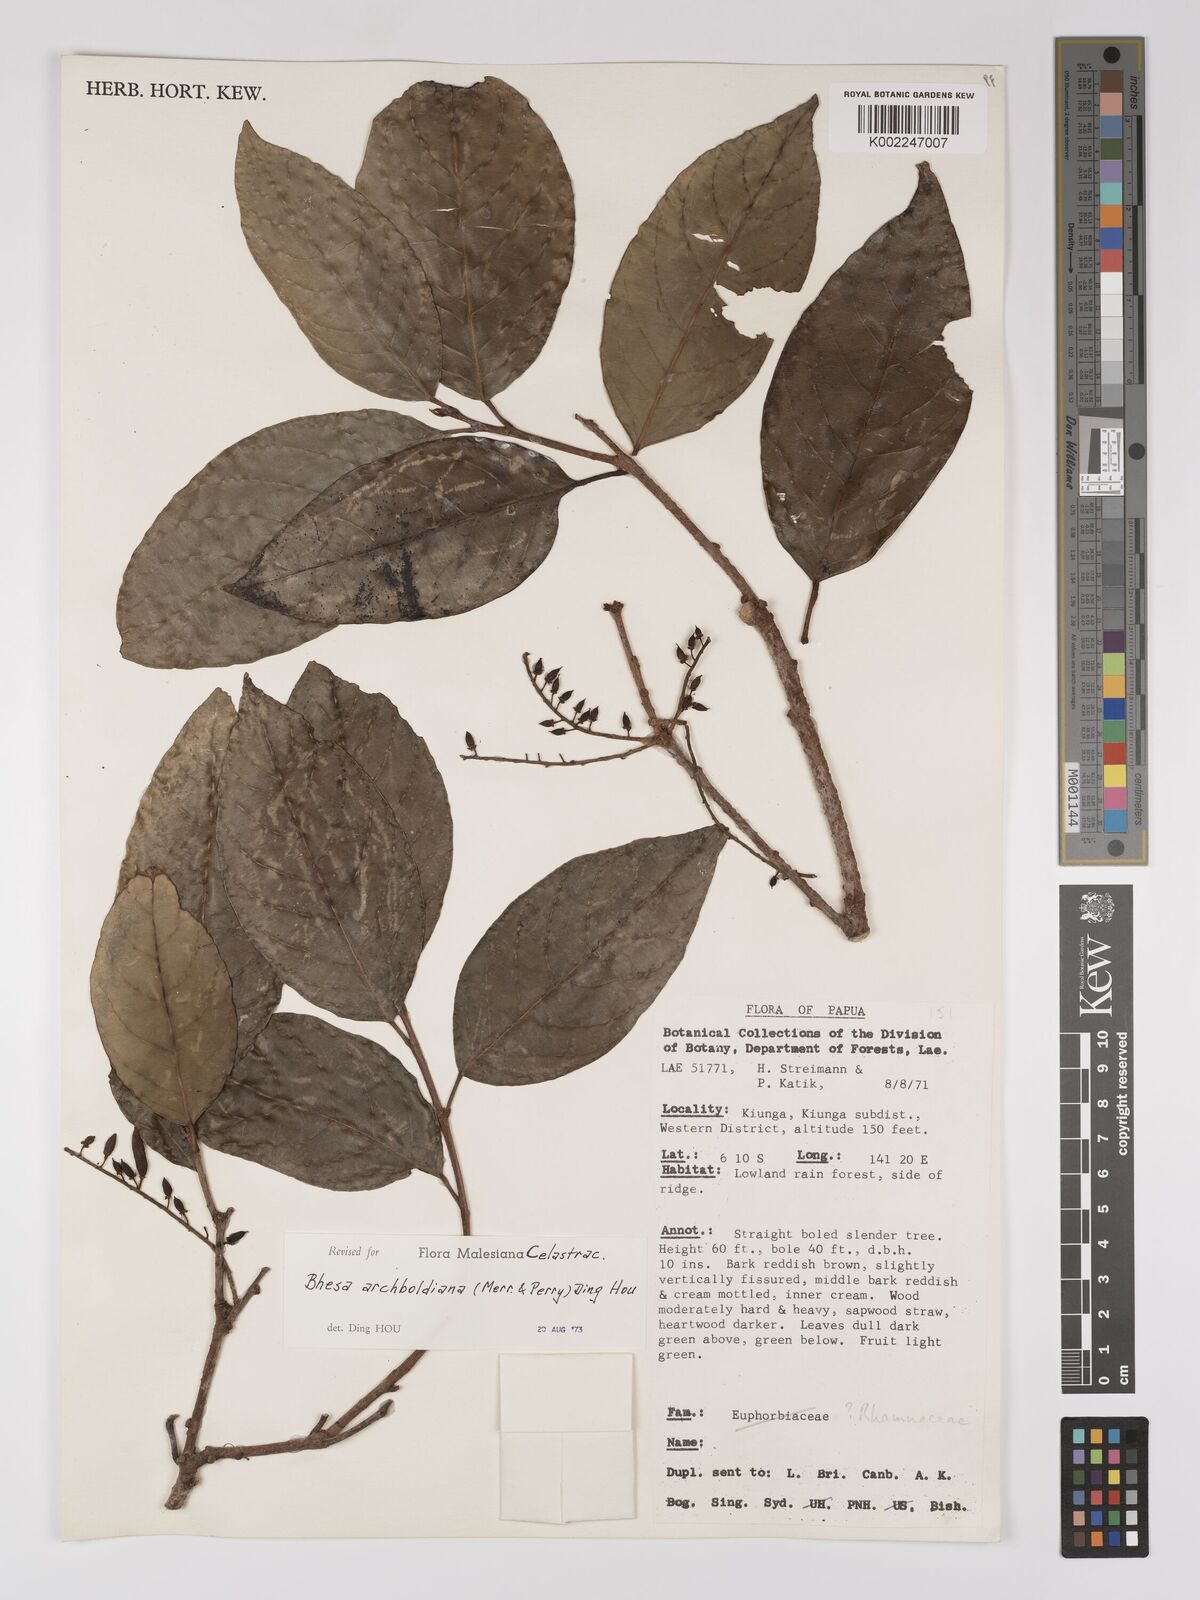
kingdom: Plantae
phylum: Tracheophyta
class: Magnoliopsida
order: Malpighiales
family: Centroplacaceae
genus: Bhesa
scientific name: Bhesa archboldiana
